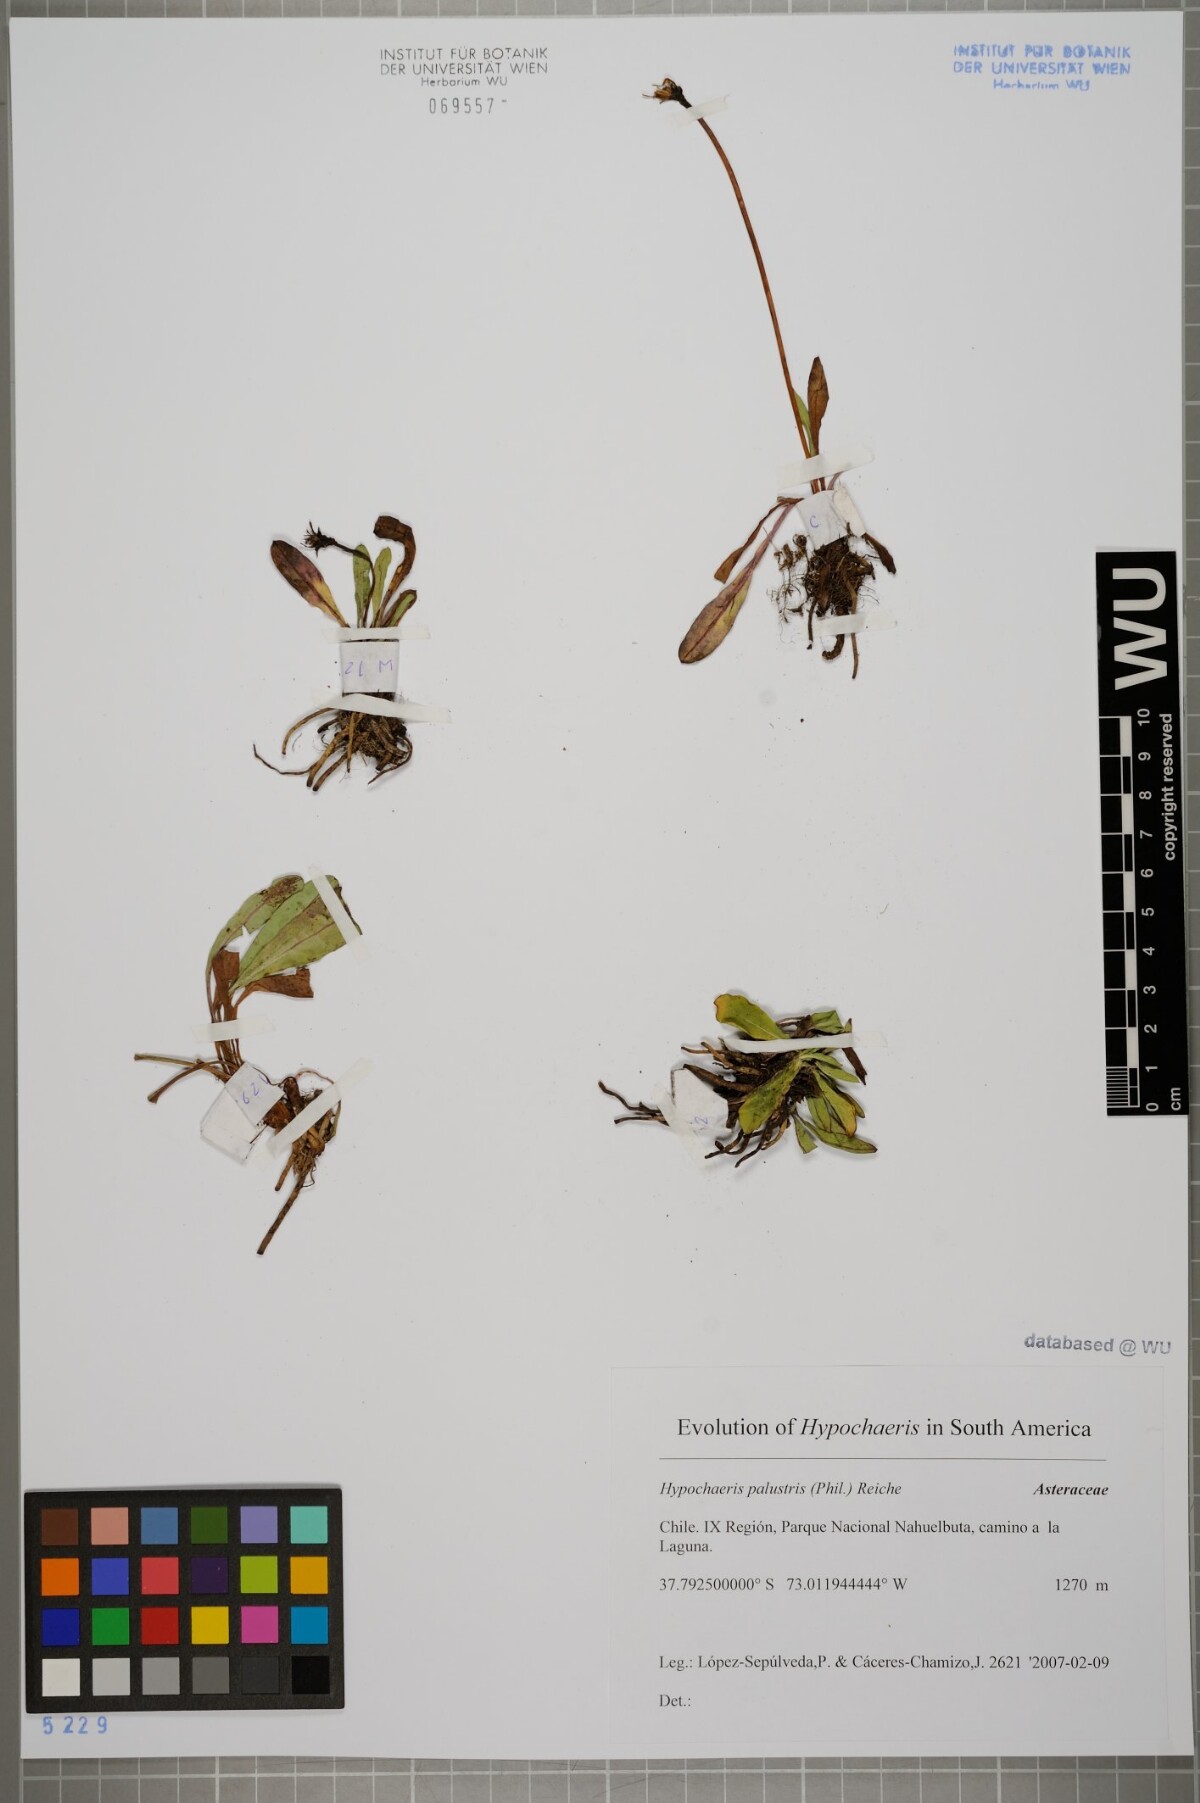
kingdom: Plantae
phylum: Tracheophyta
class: Magnoliopsida
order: Asterales
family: Asteraceae
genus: Hypochaeris
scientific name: Hypochaeris palustris
